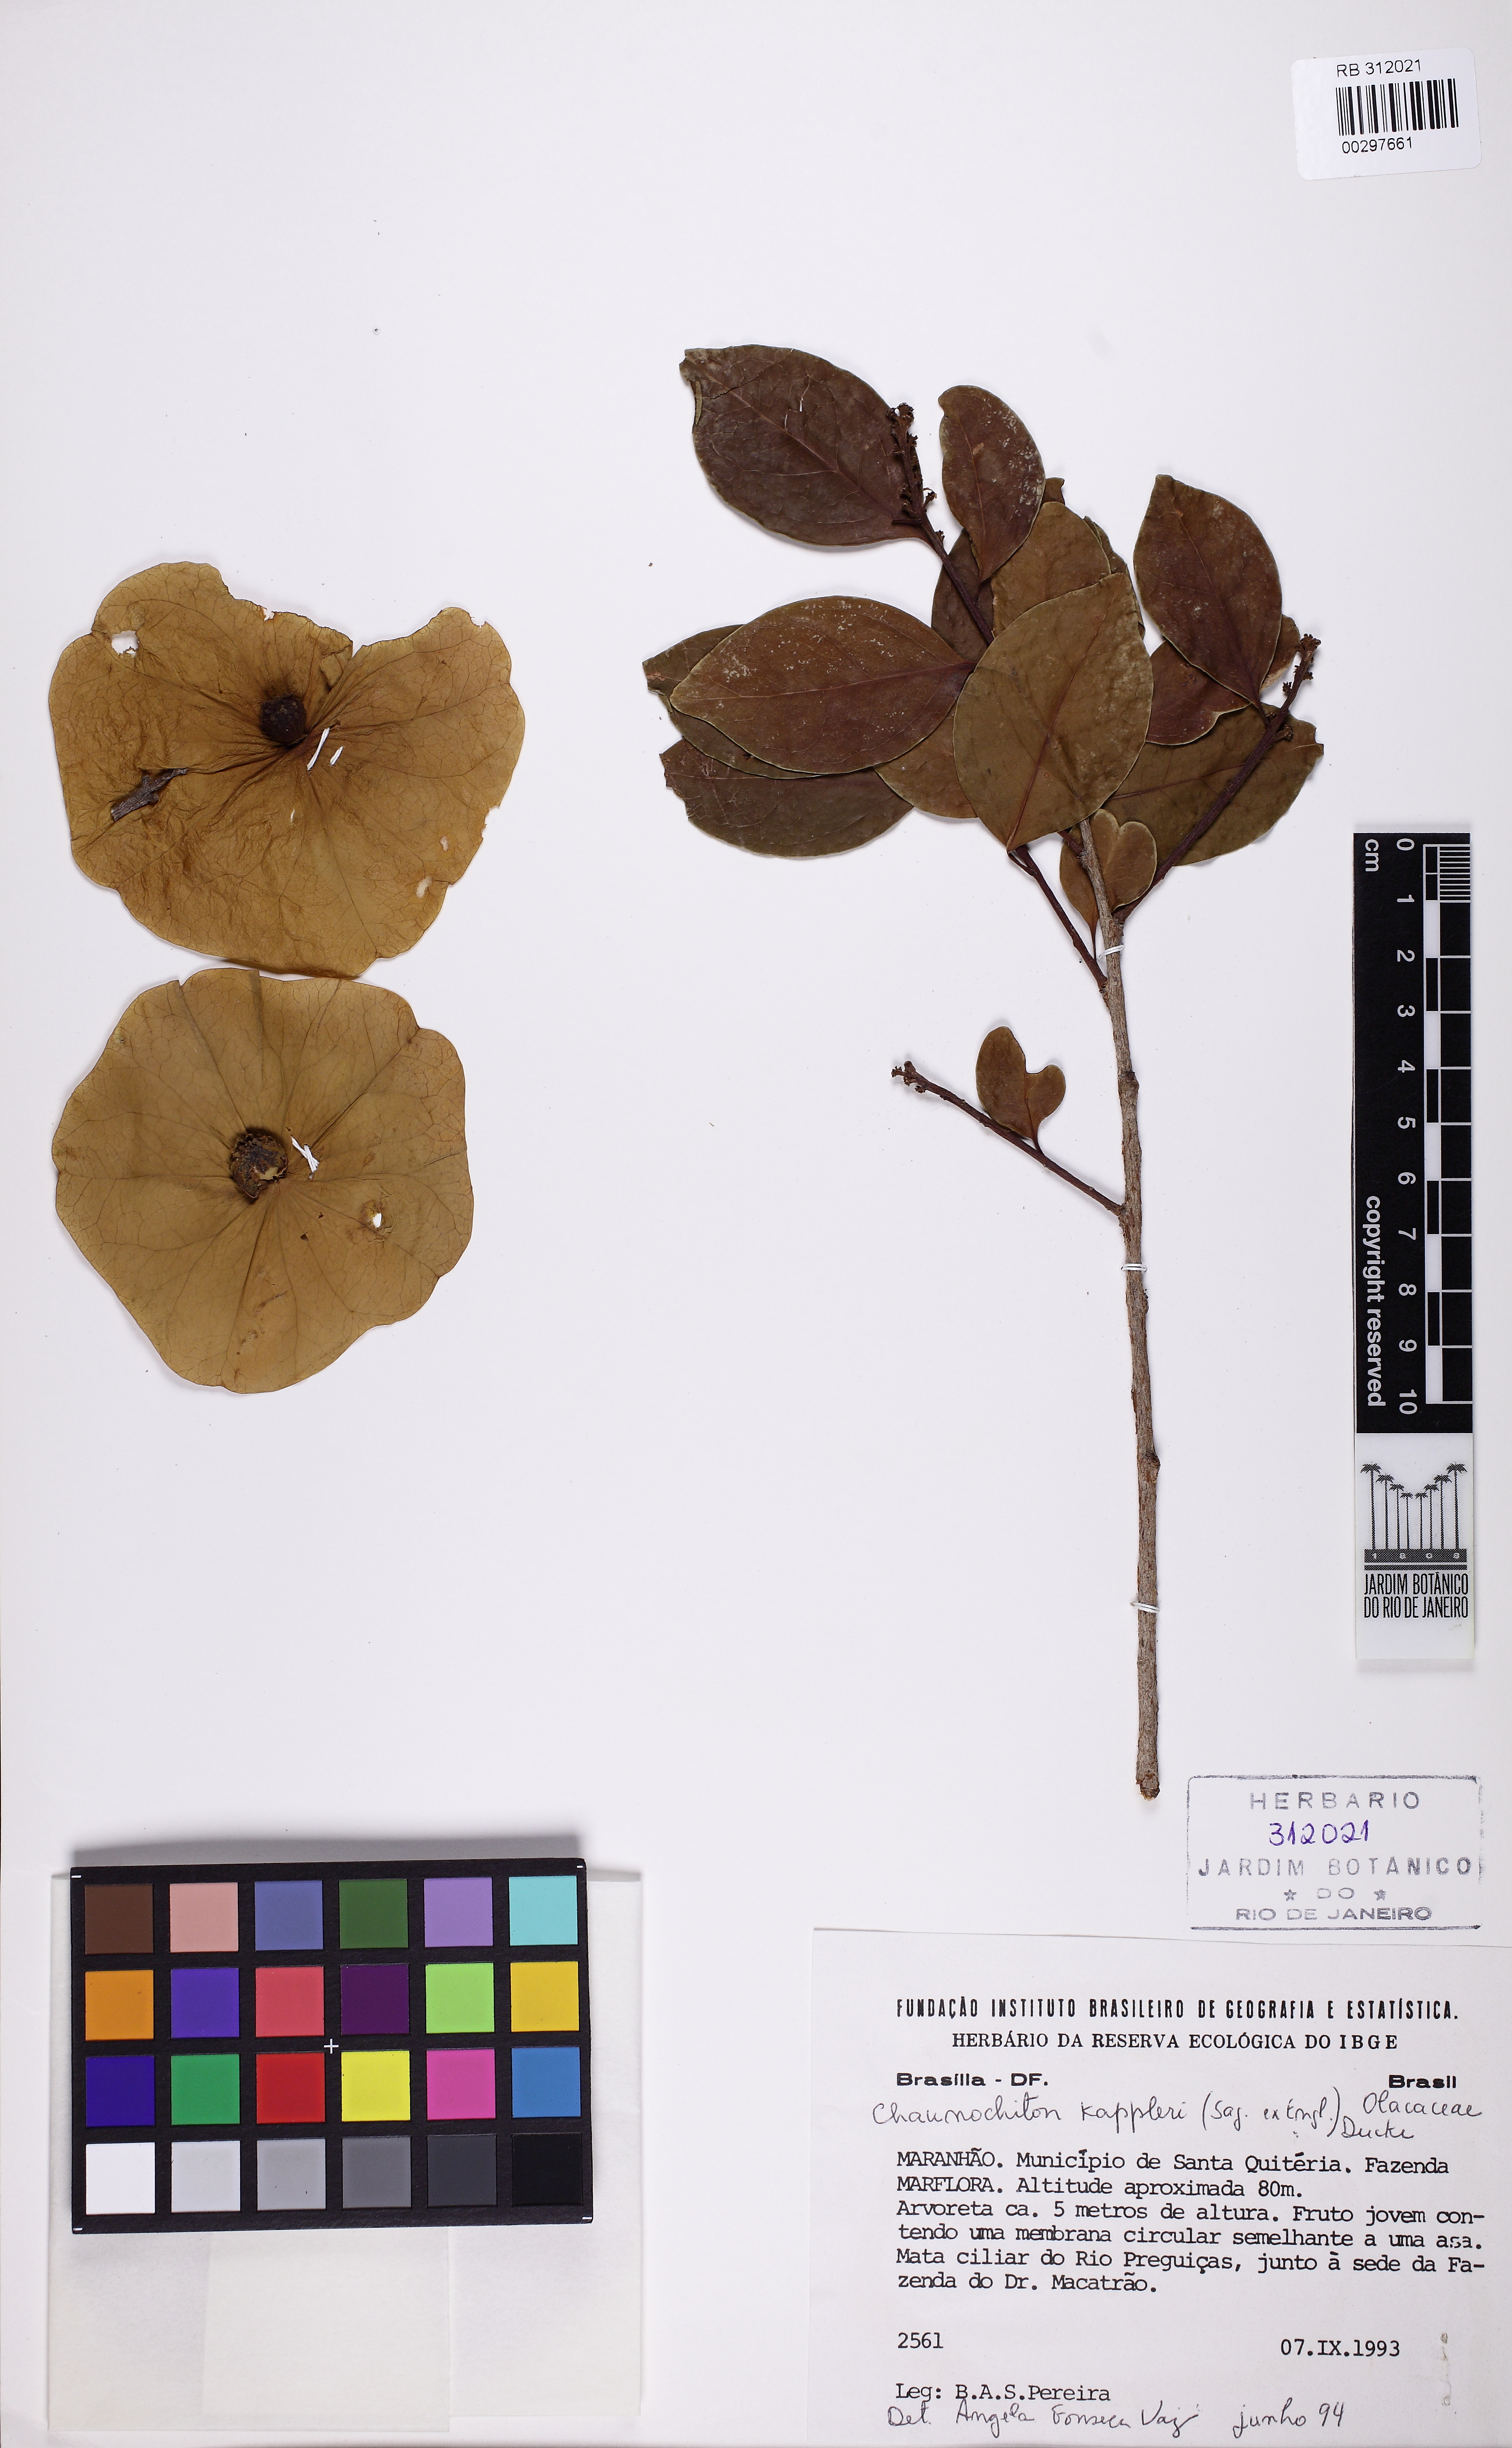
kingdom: Plantae
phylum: Tracheophyta
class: Magnoliopsida
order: Santalales
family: Aptandraceae
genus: Chaunochiton
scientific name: Chaunochiton kappleri
